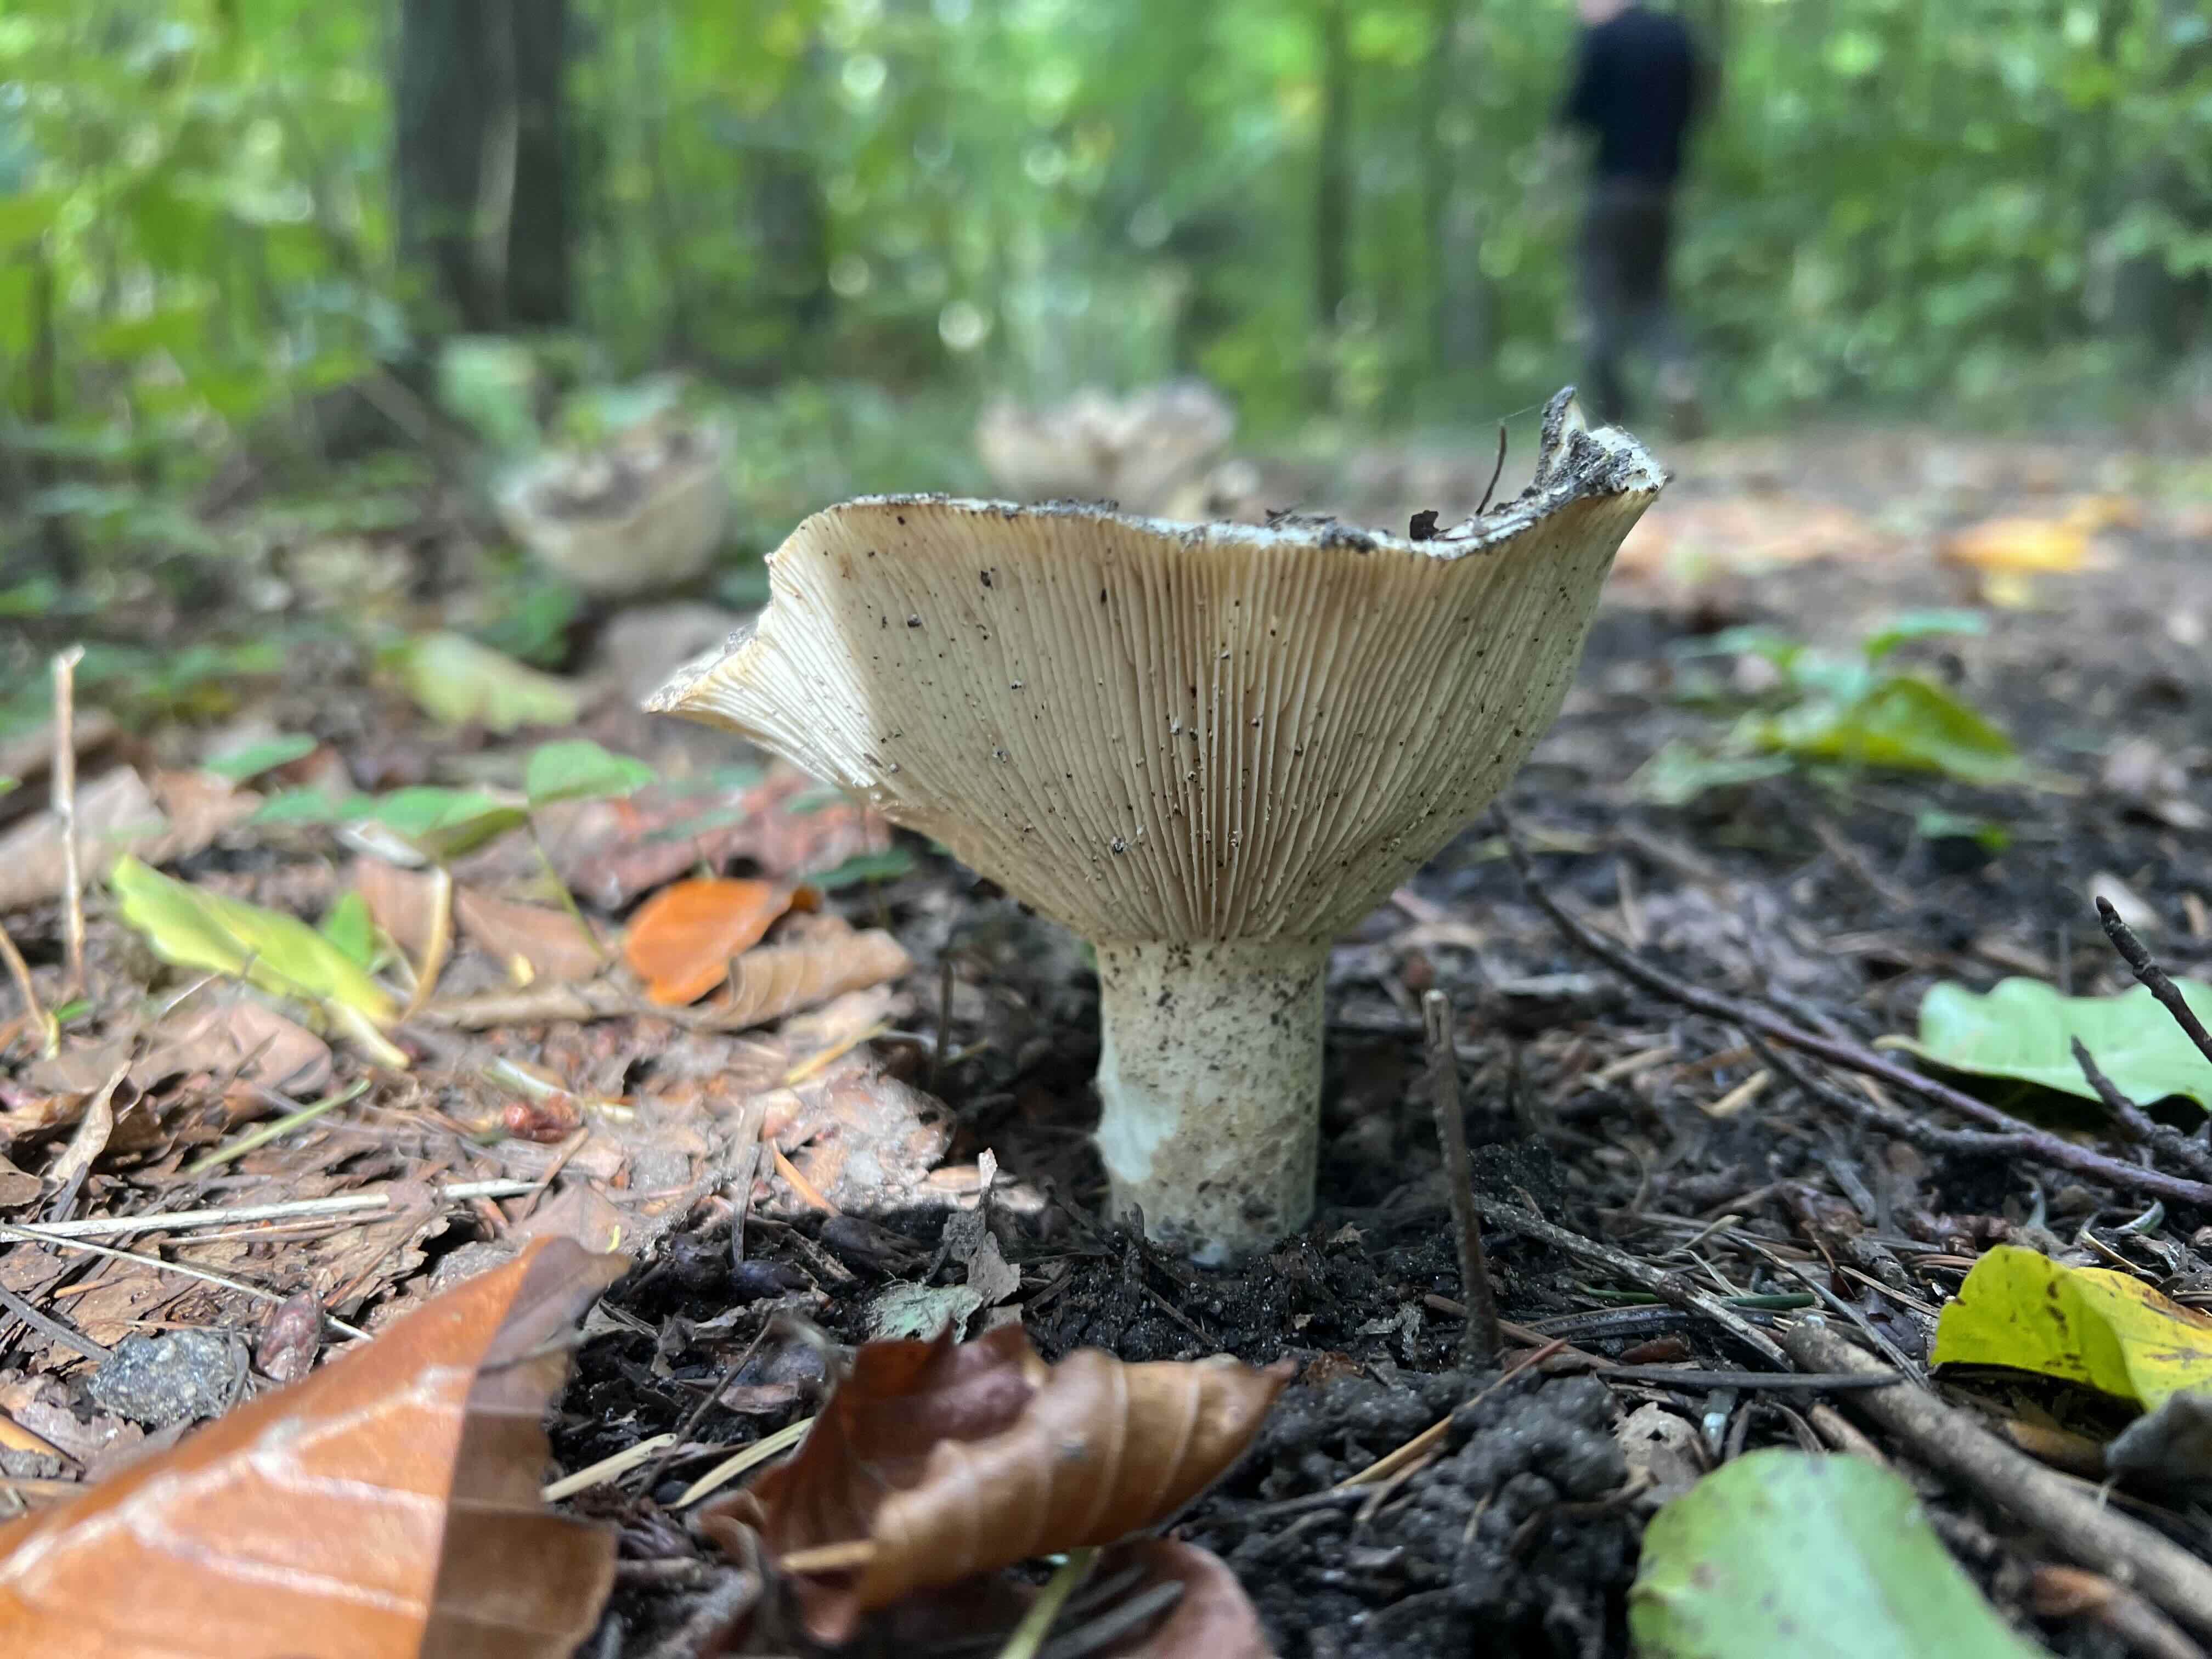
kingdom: Fungi
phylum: Basidiomycota
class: Agaricomycetes
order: Russulales
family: Russulaceae
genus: Russula
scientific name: Russula
